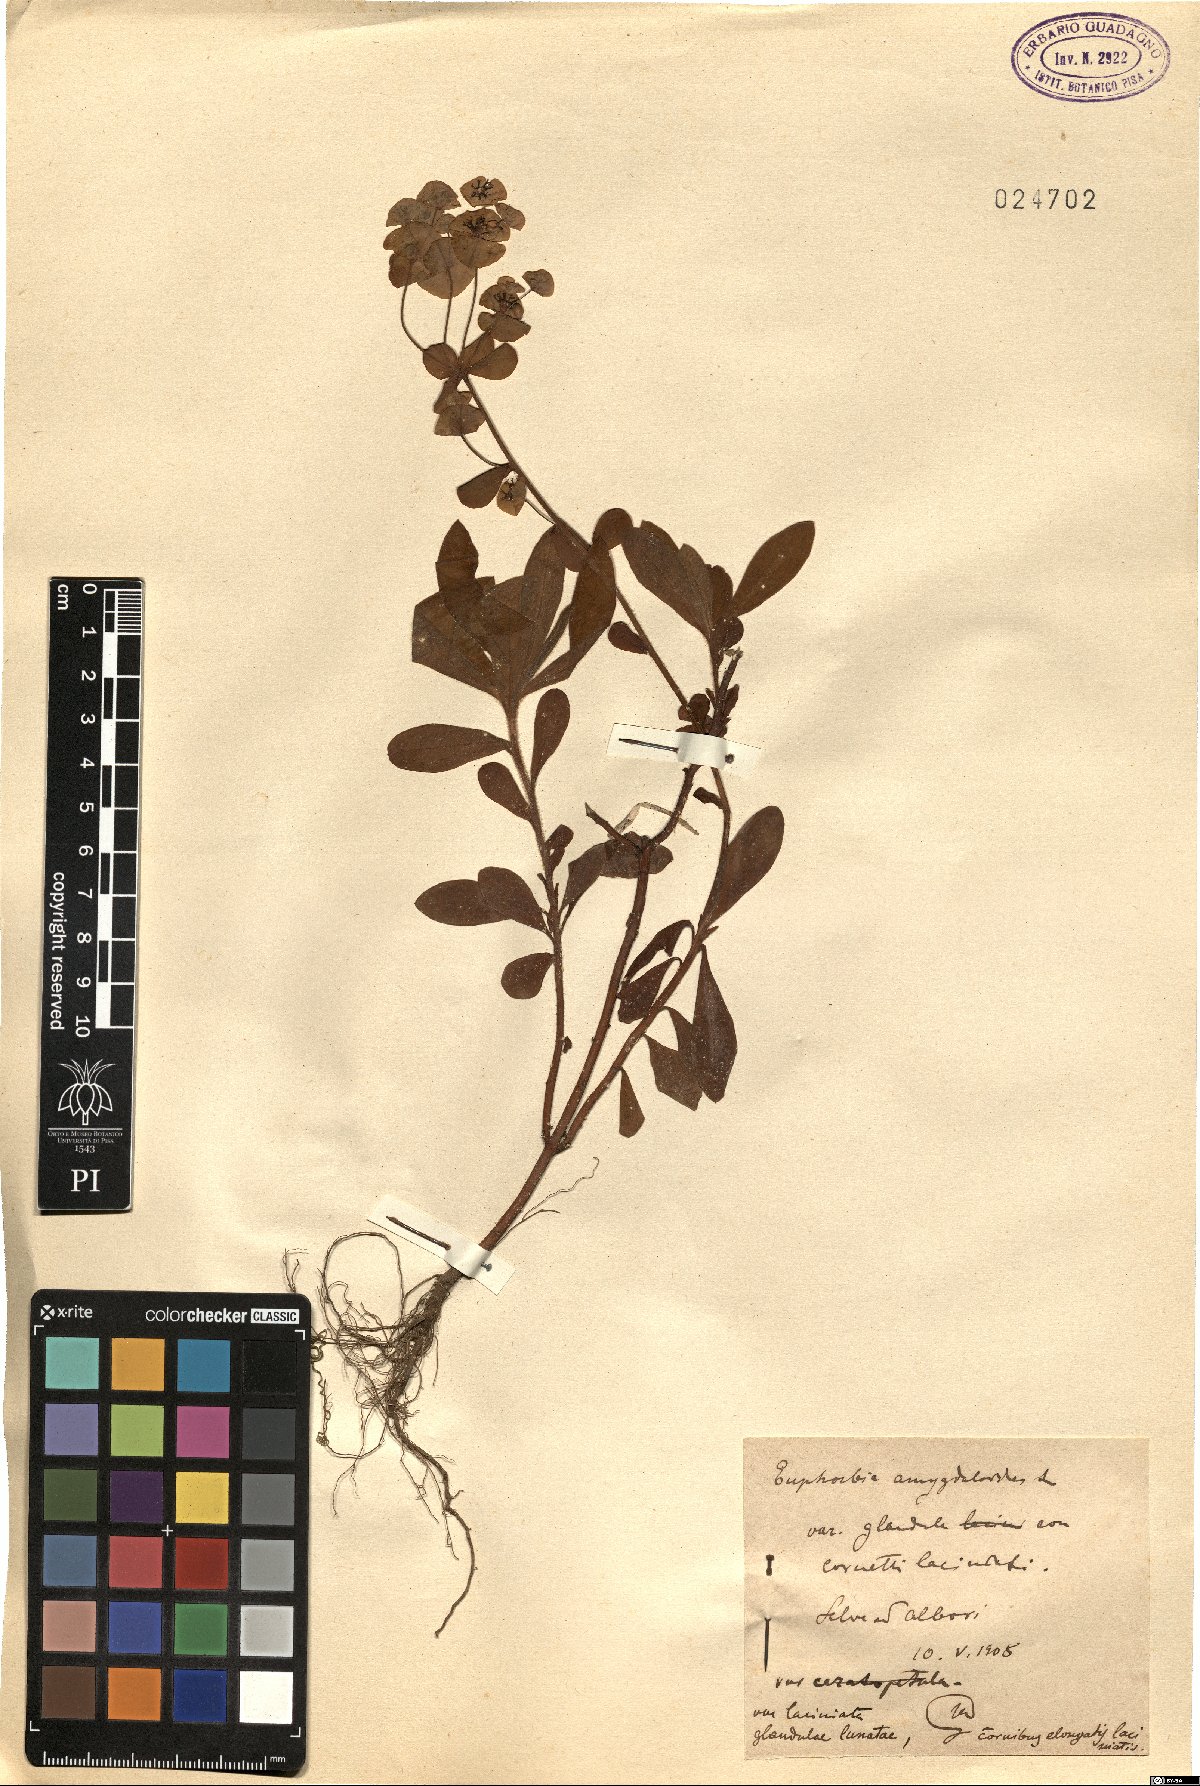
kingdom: Plantae
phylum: Tracheophyta
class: Magnoliopsida
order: Malpighiales
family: Euphorbiaceae
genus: Euphorbia
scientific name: Euphorbia amygdaloides
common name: Wood spurge
